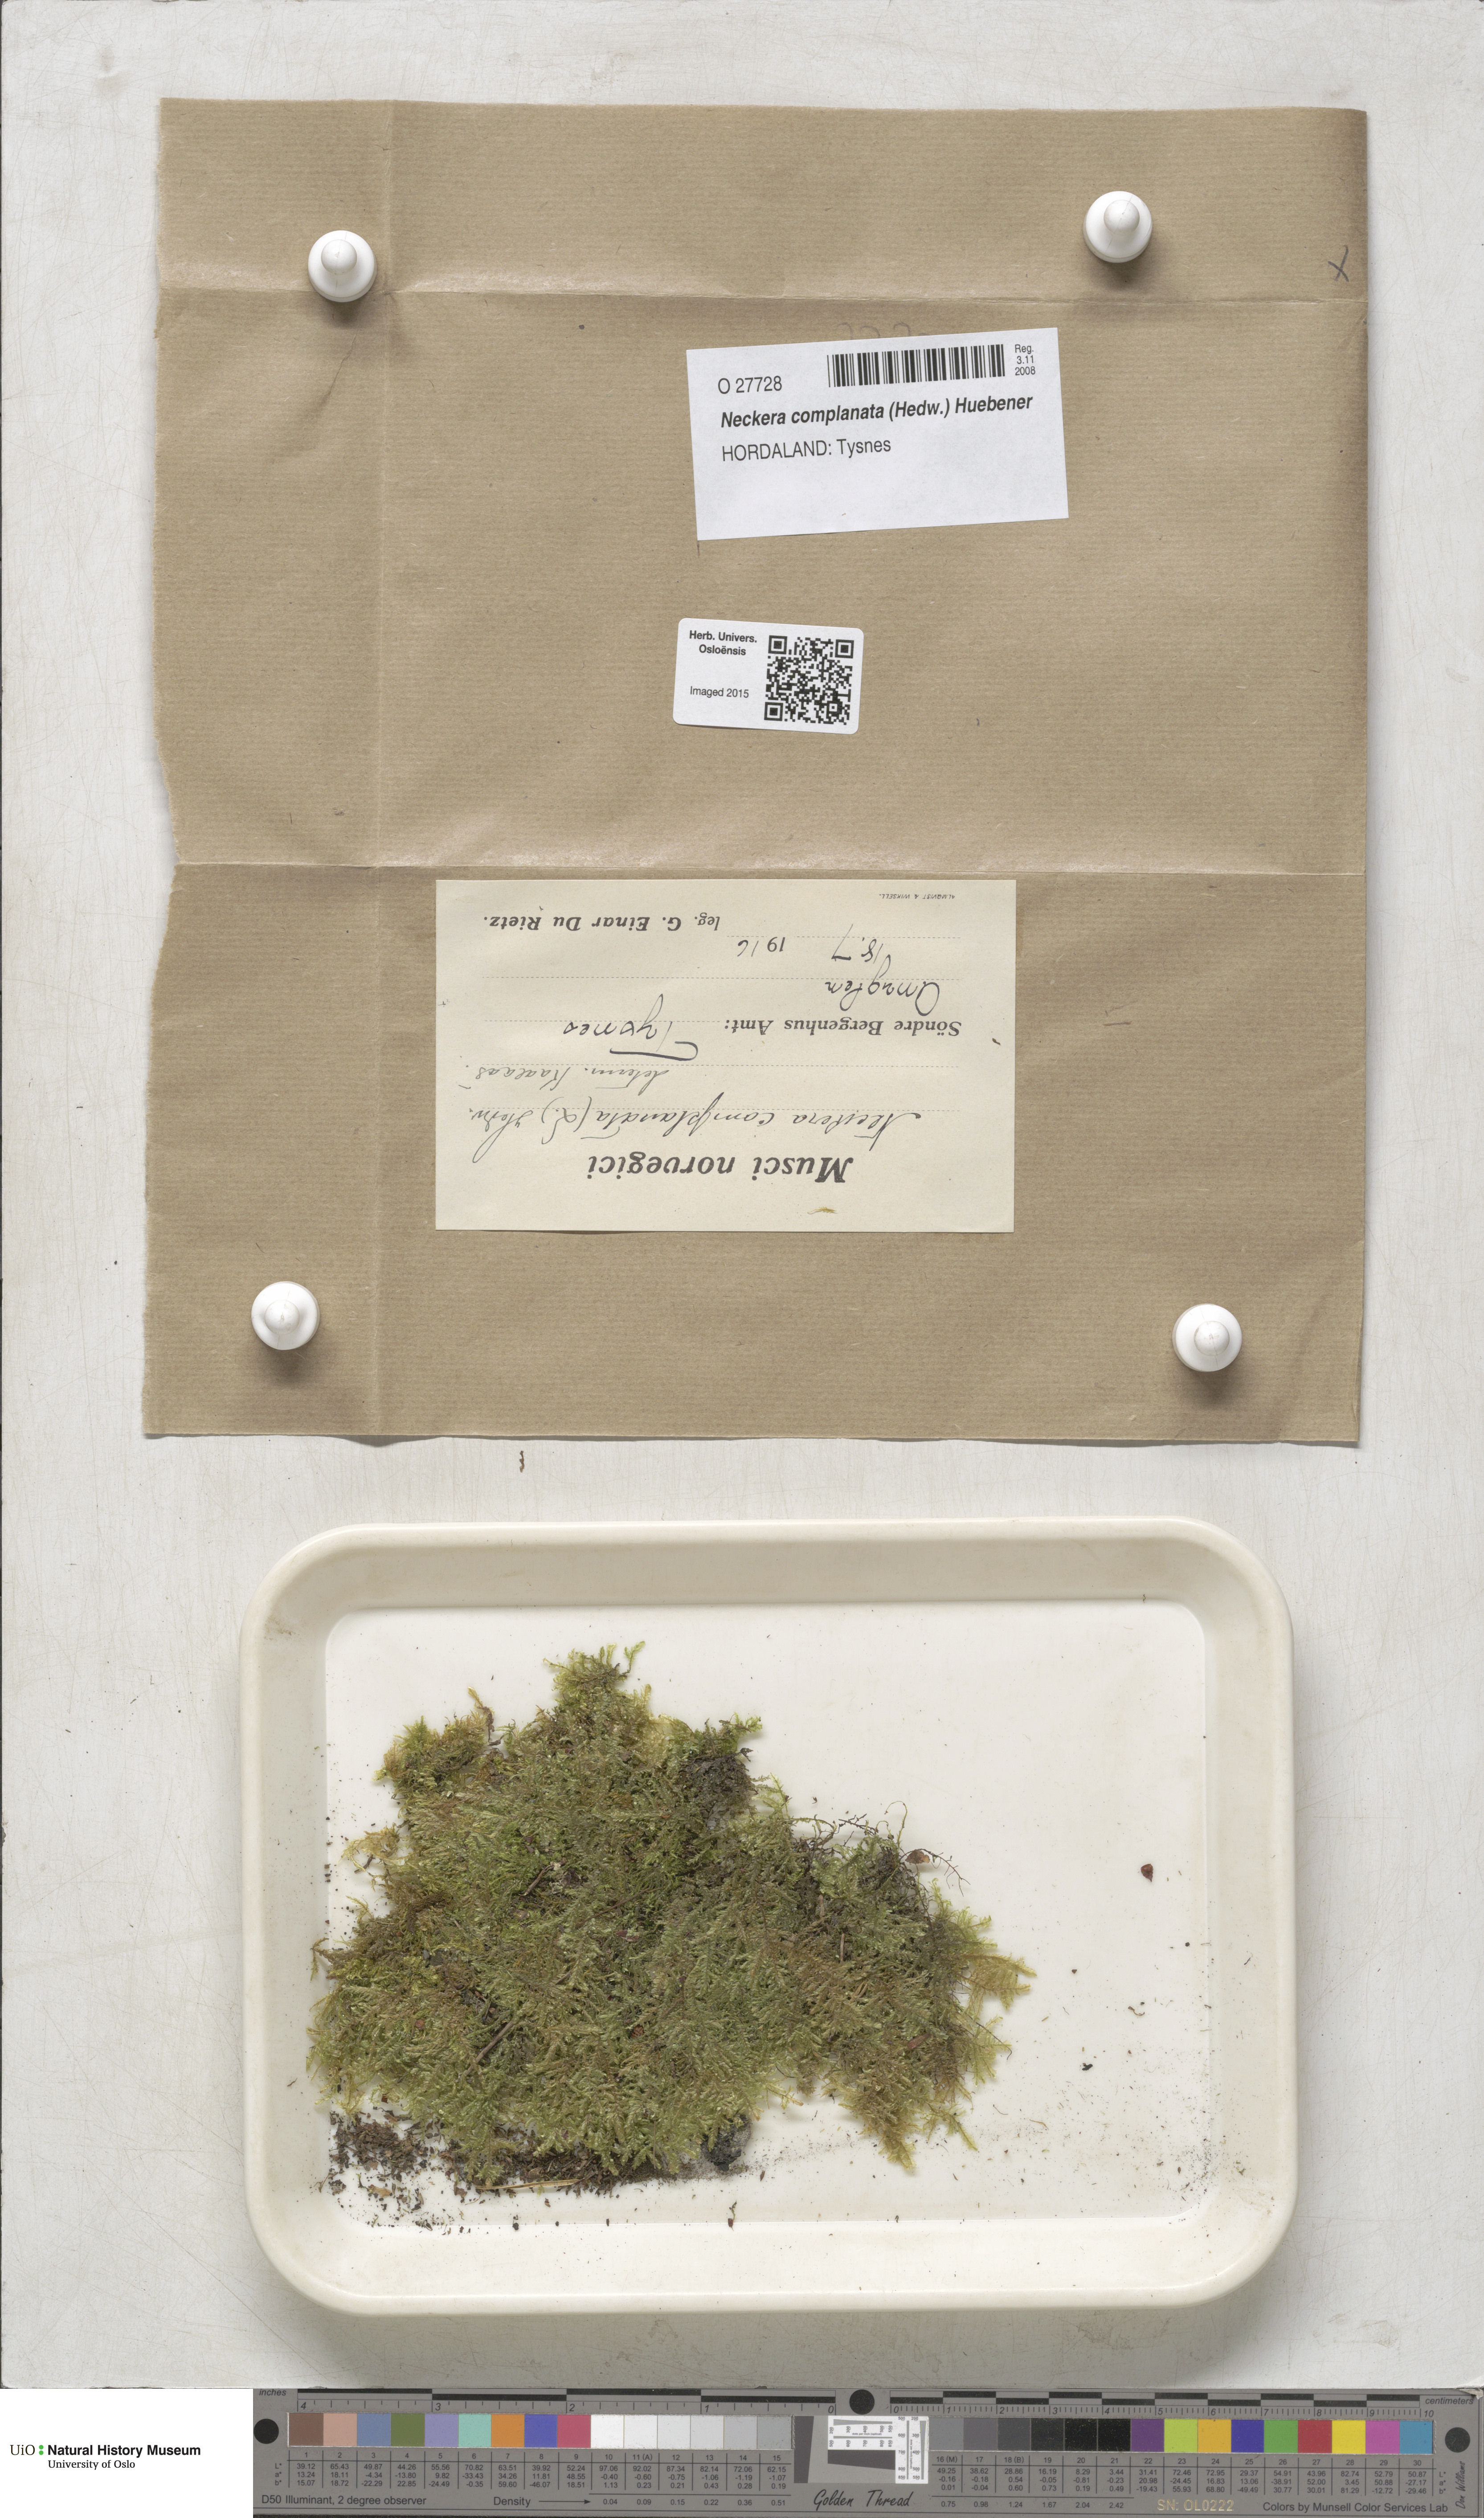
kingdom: Plantae
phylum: Bryophyta
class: Bryopsida
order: Hypnales
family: Neckeraceae
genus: Alleniella
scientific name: Alleniella complanata
